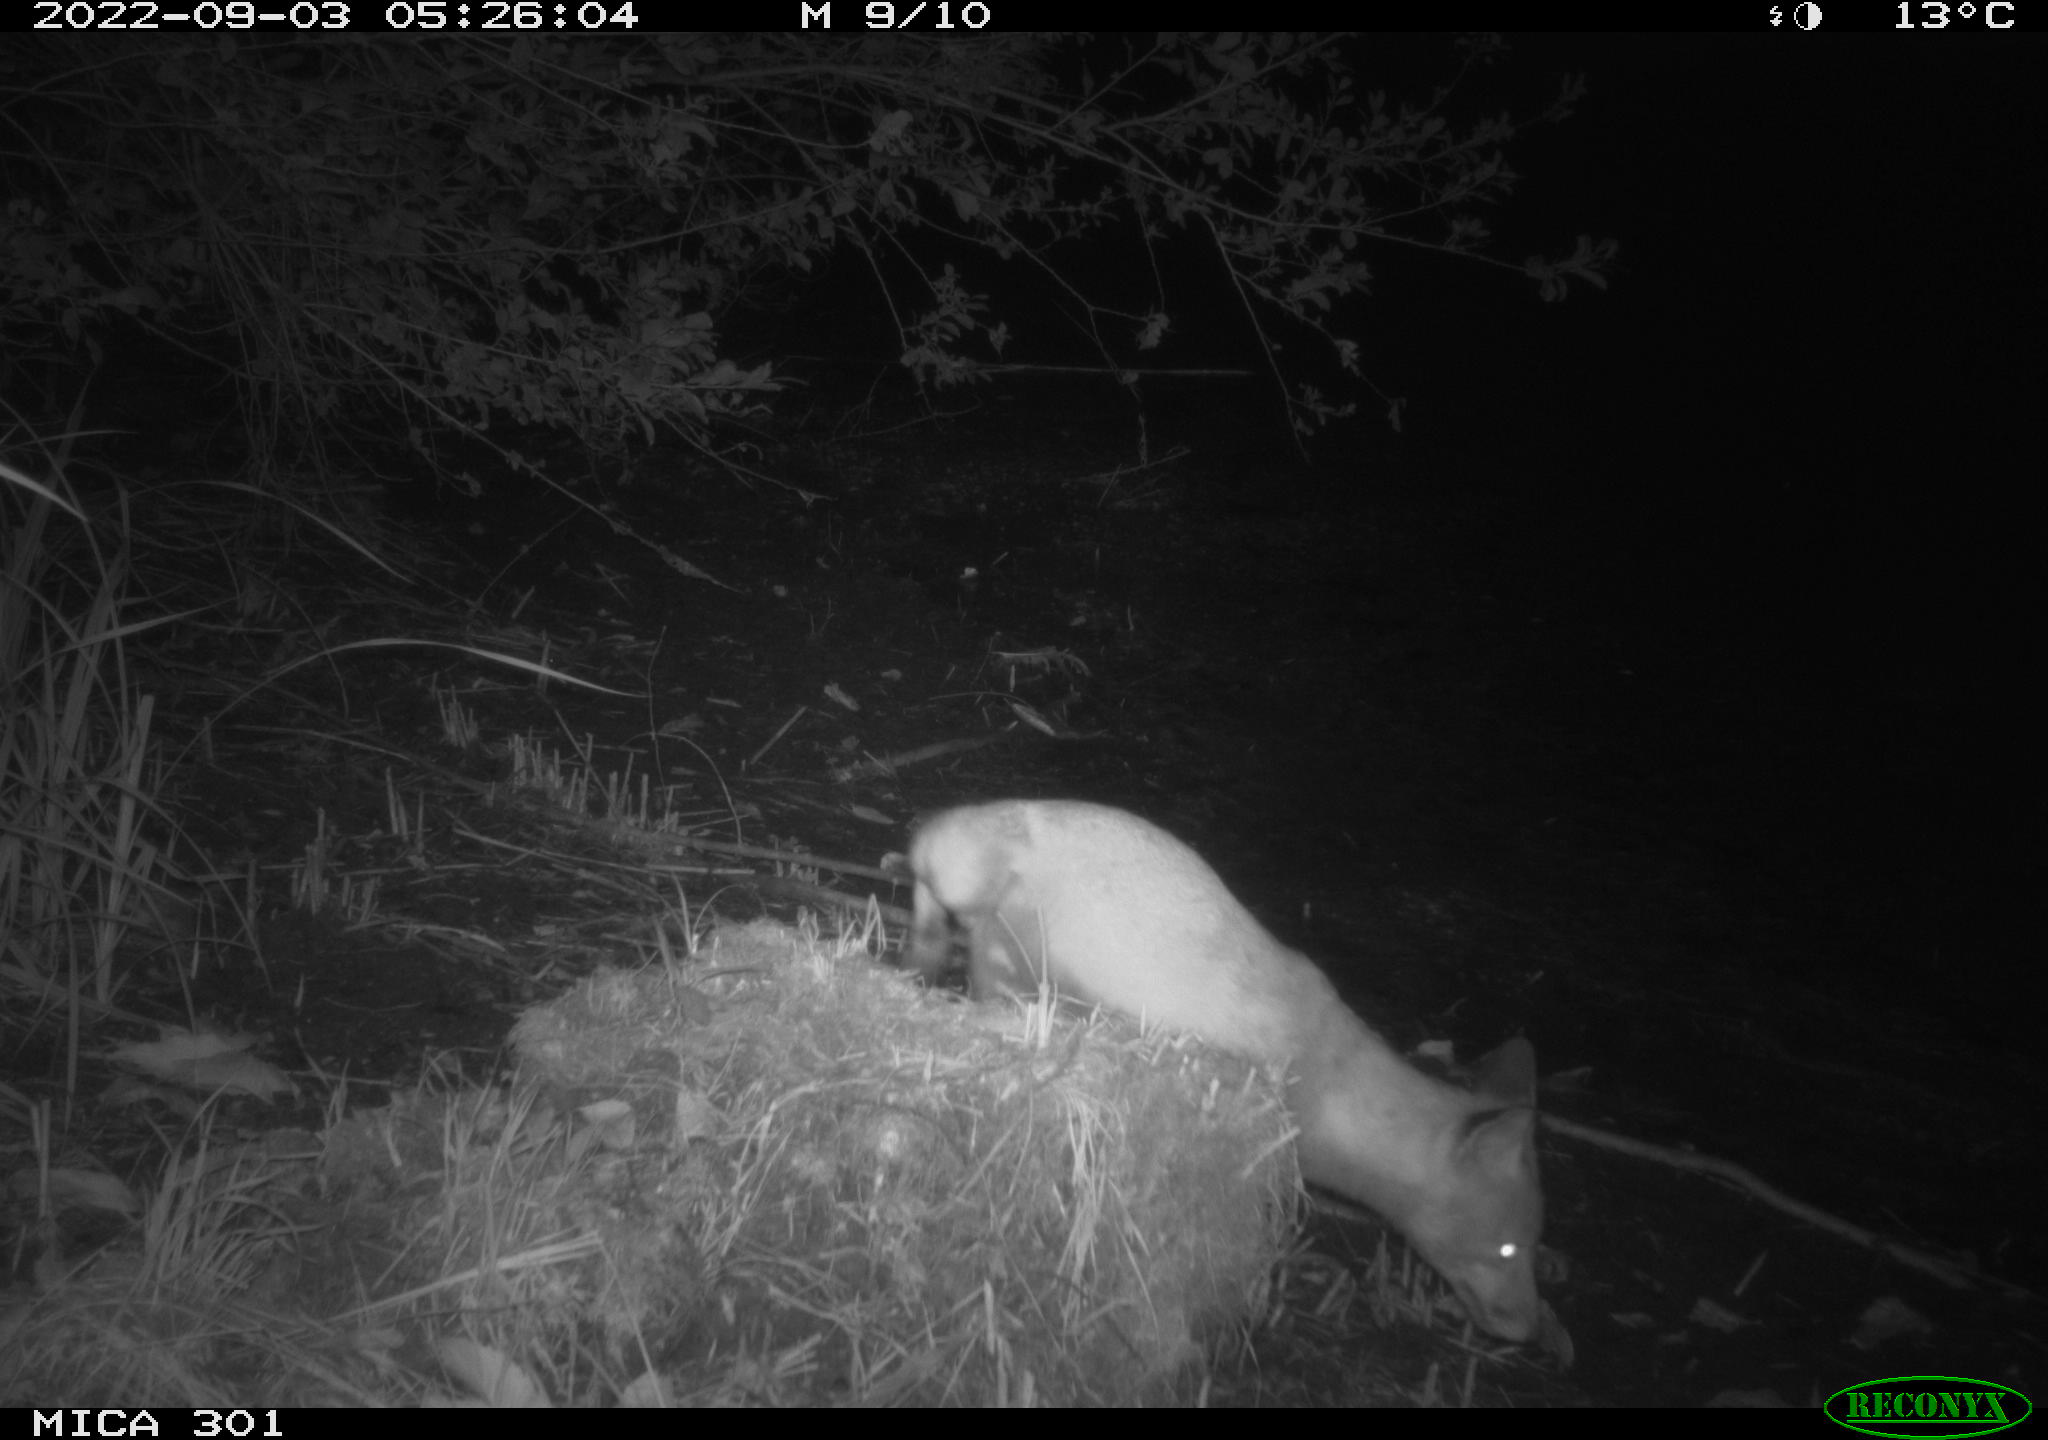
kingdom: Animalia
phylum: Chordata
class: Mammalia
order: Carnivora
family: Canidae
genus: Vulpes
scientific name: Vulpes vulpes
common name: Red fox
